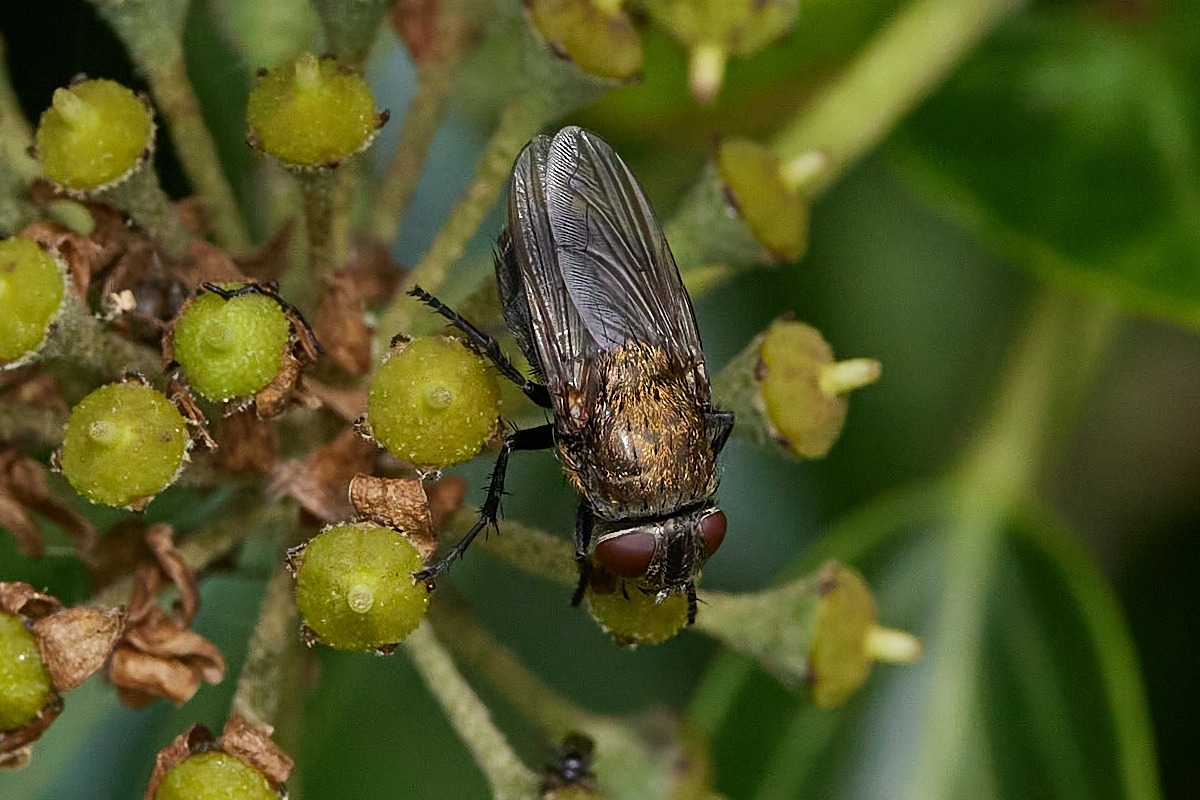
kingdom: Animalia
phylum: Arthropoda
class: Insecta
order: Diptera
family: Polleniidae
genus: Pollenia
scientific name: Pollenia
